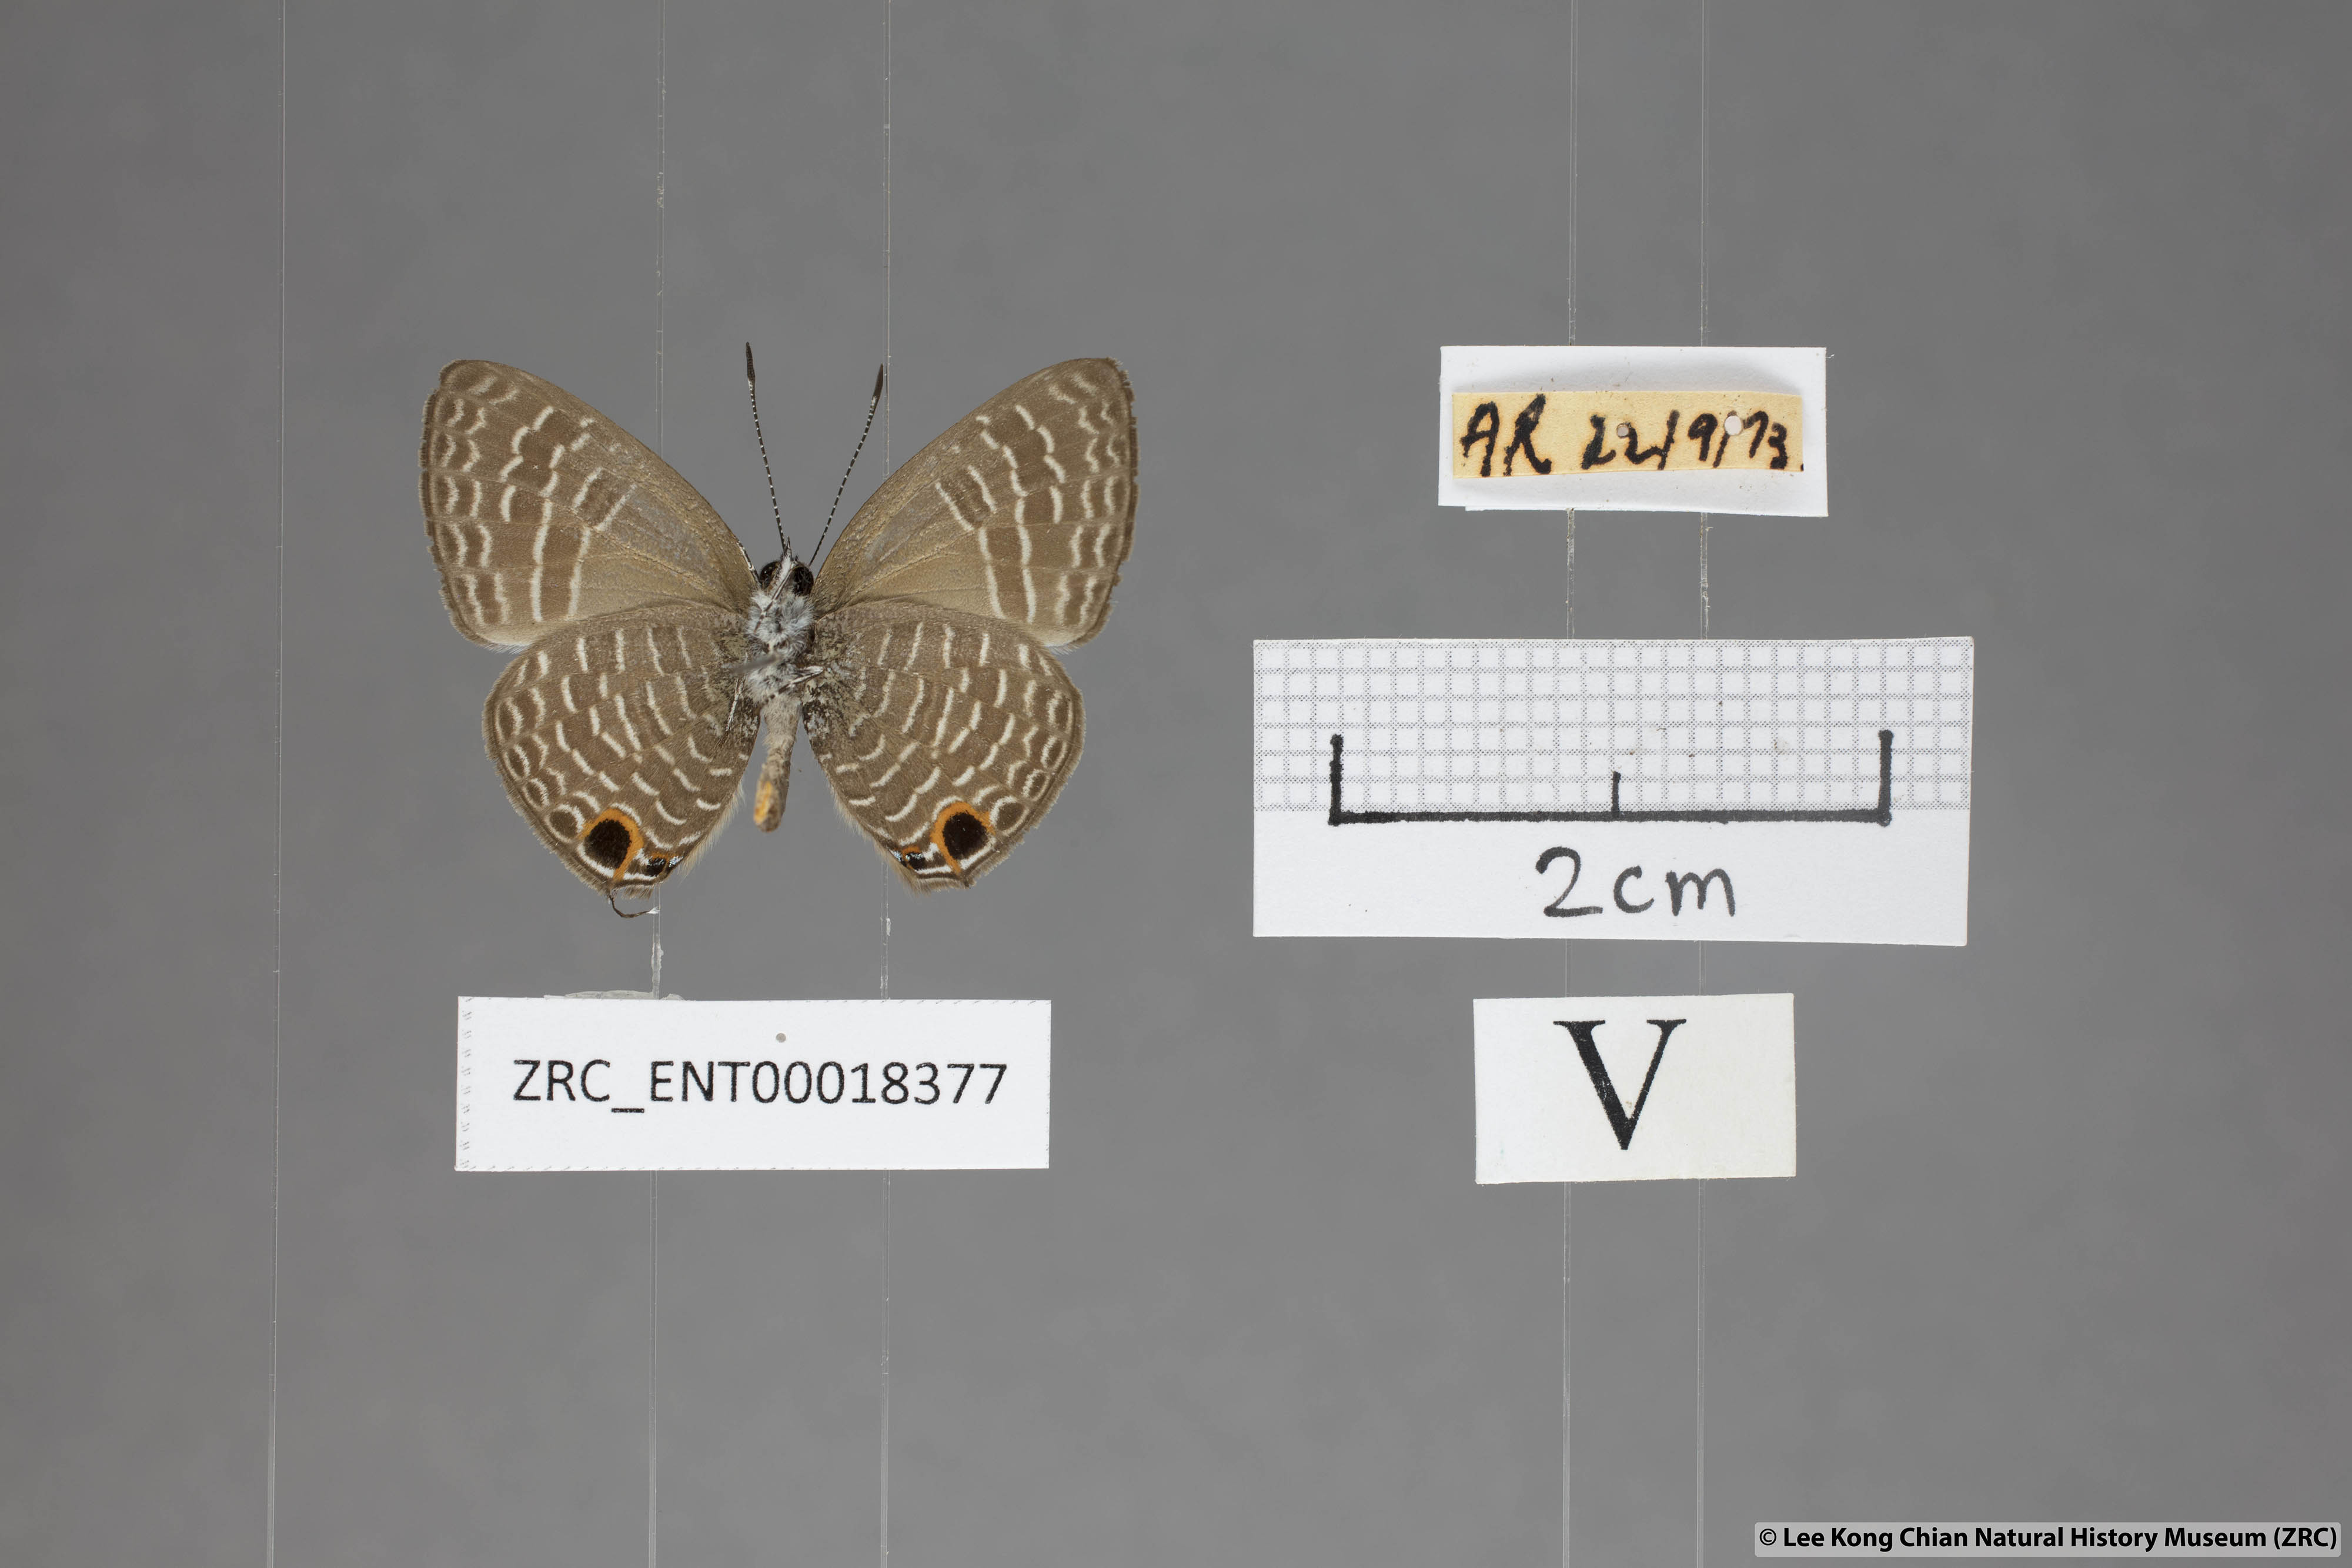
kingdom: Animalia
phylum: Arthropoda
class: Insecta
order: Lepidoptera
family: Lycaenidae
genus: Nacaduba
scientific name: Nacaduba kurava
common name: Transparent 6-line blue
